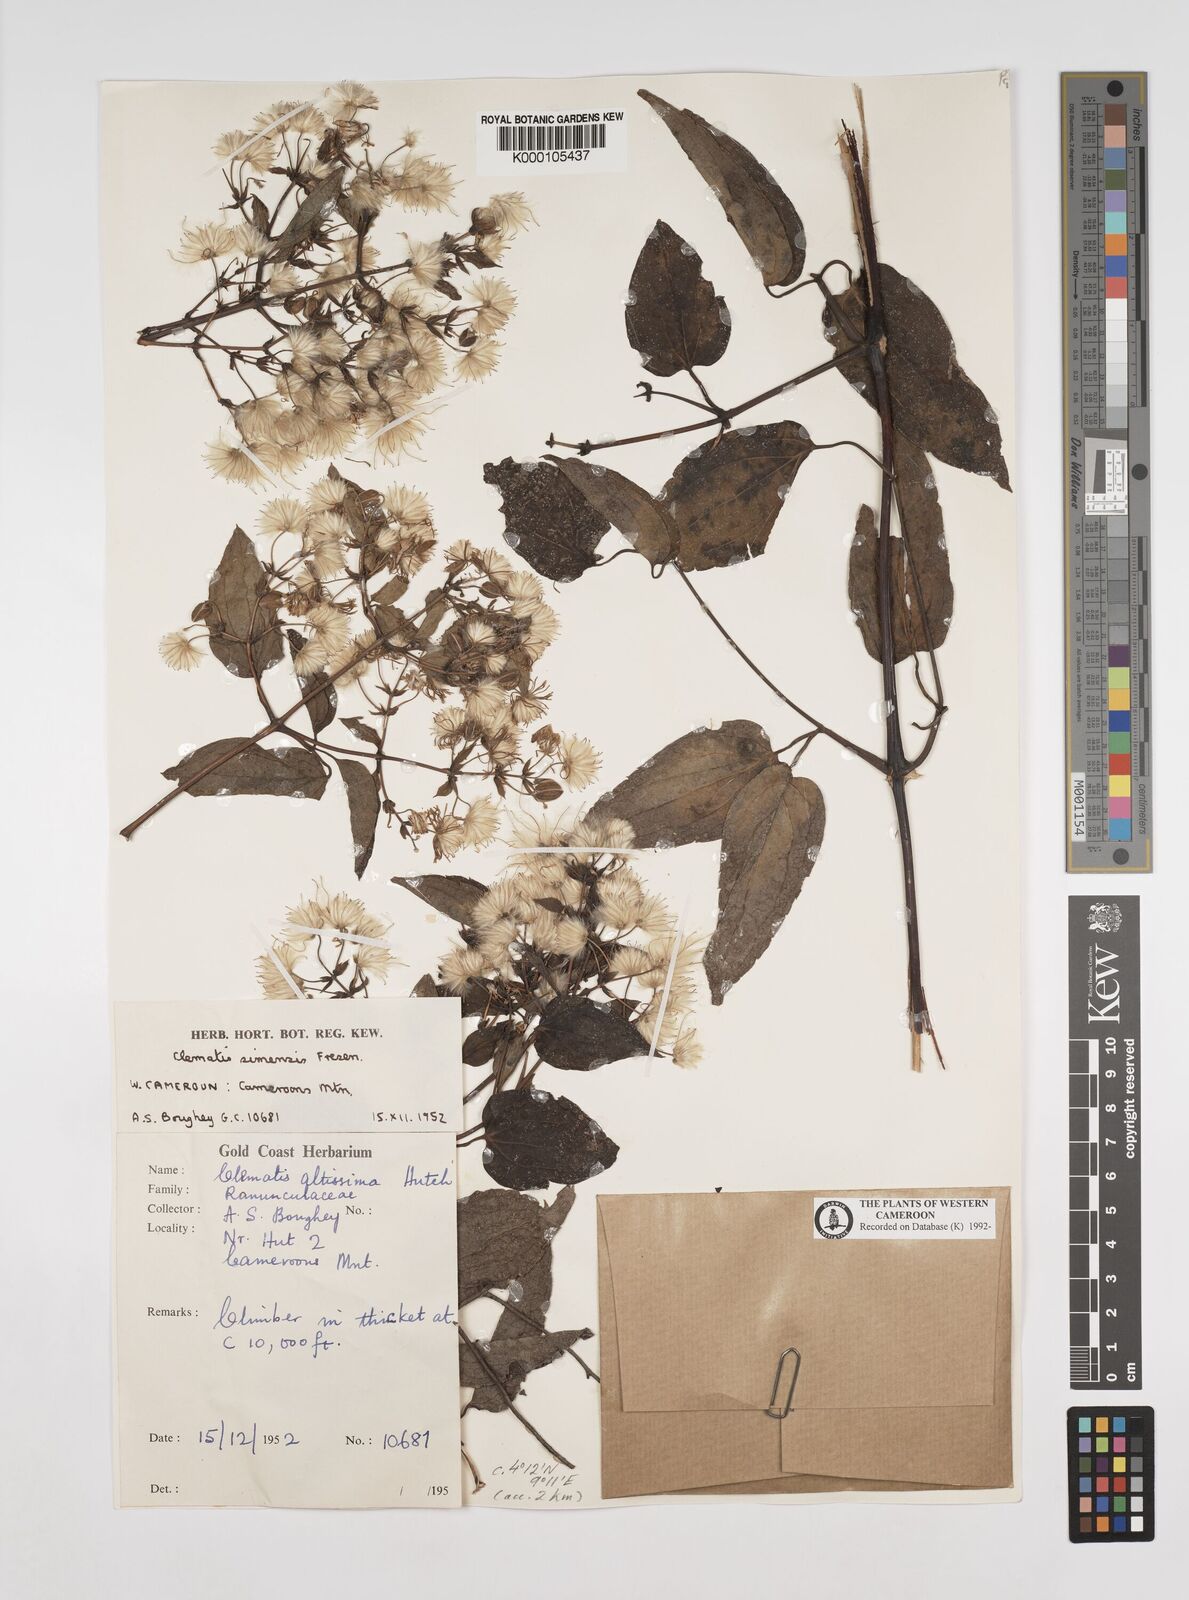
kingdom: Plantae
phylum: Tracheophyta
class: Magnoliopsida
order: Ranunculales
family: Ranunculaceae
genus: Clematis
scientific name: Clematis simensis
